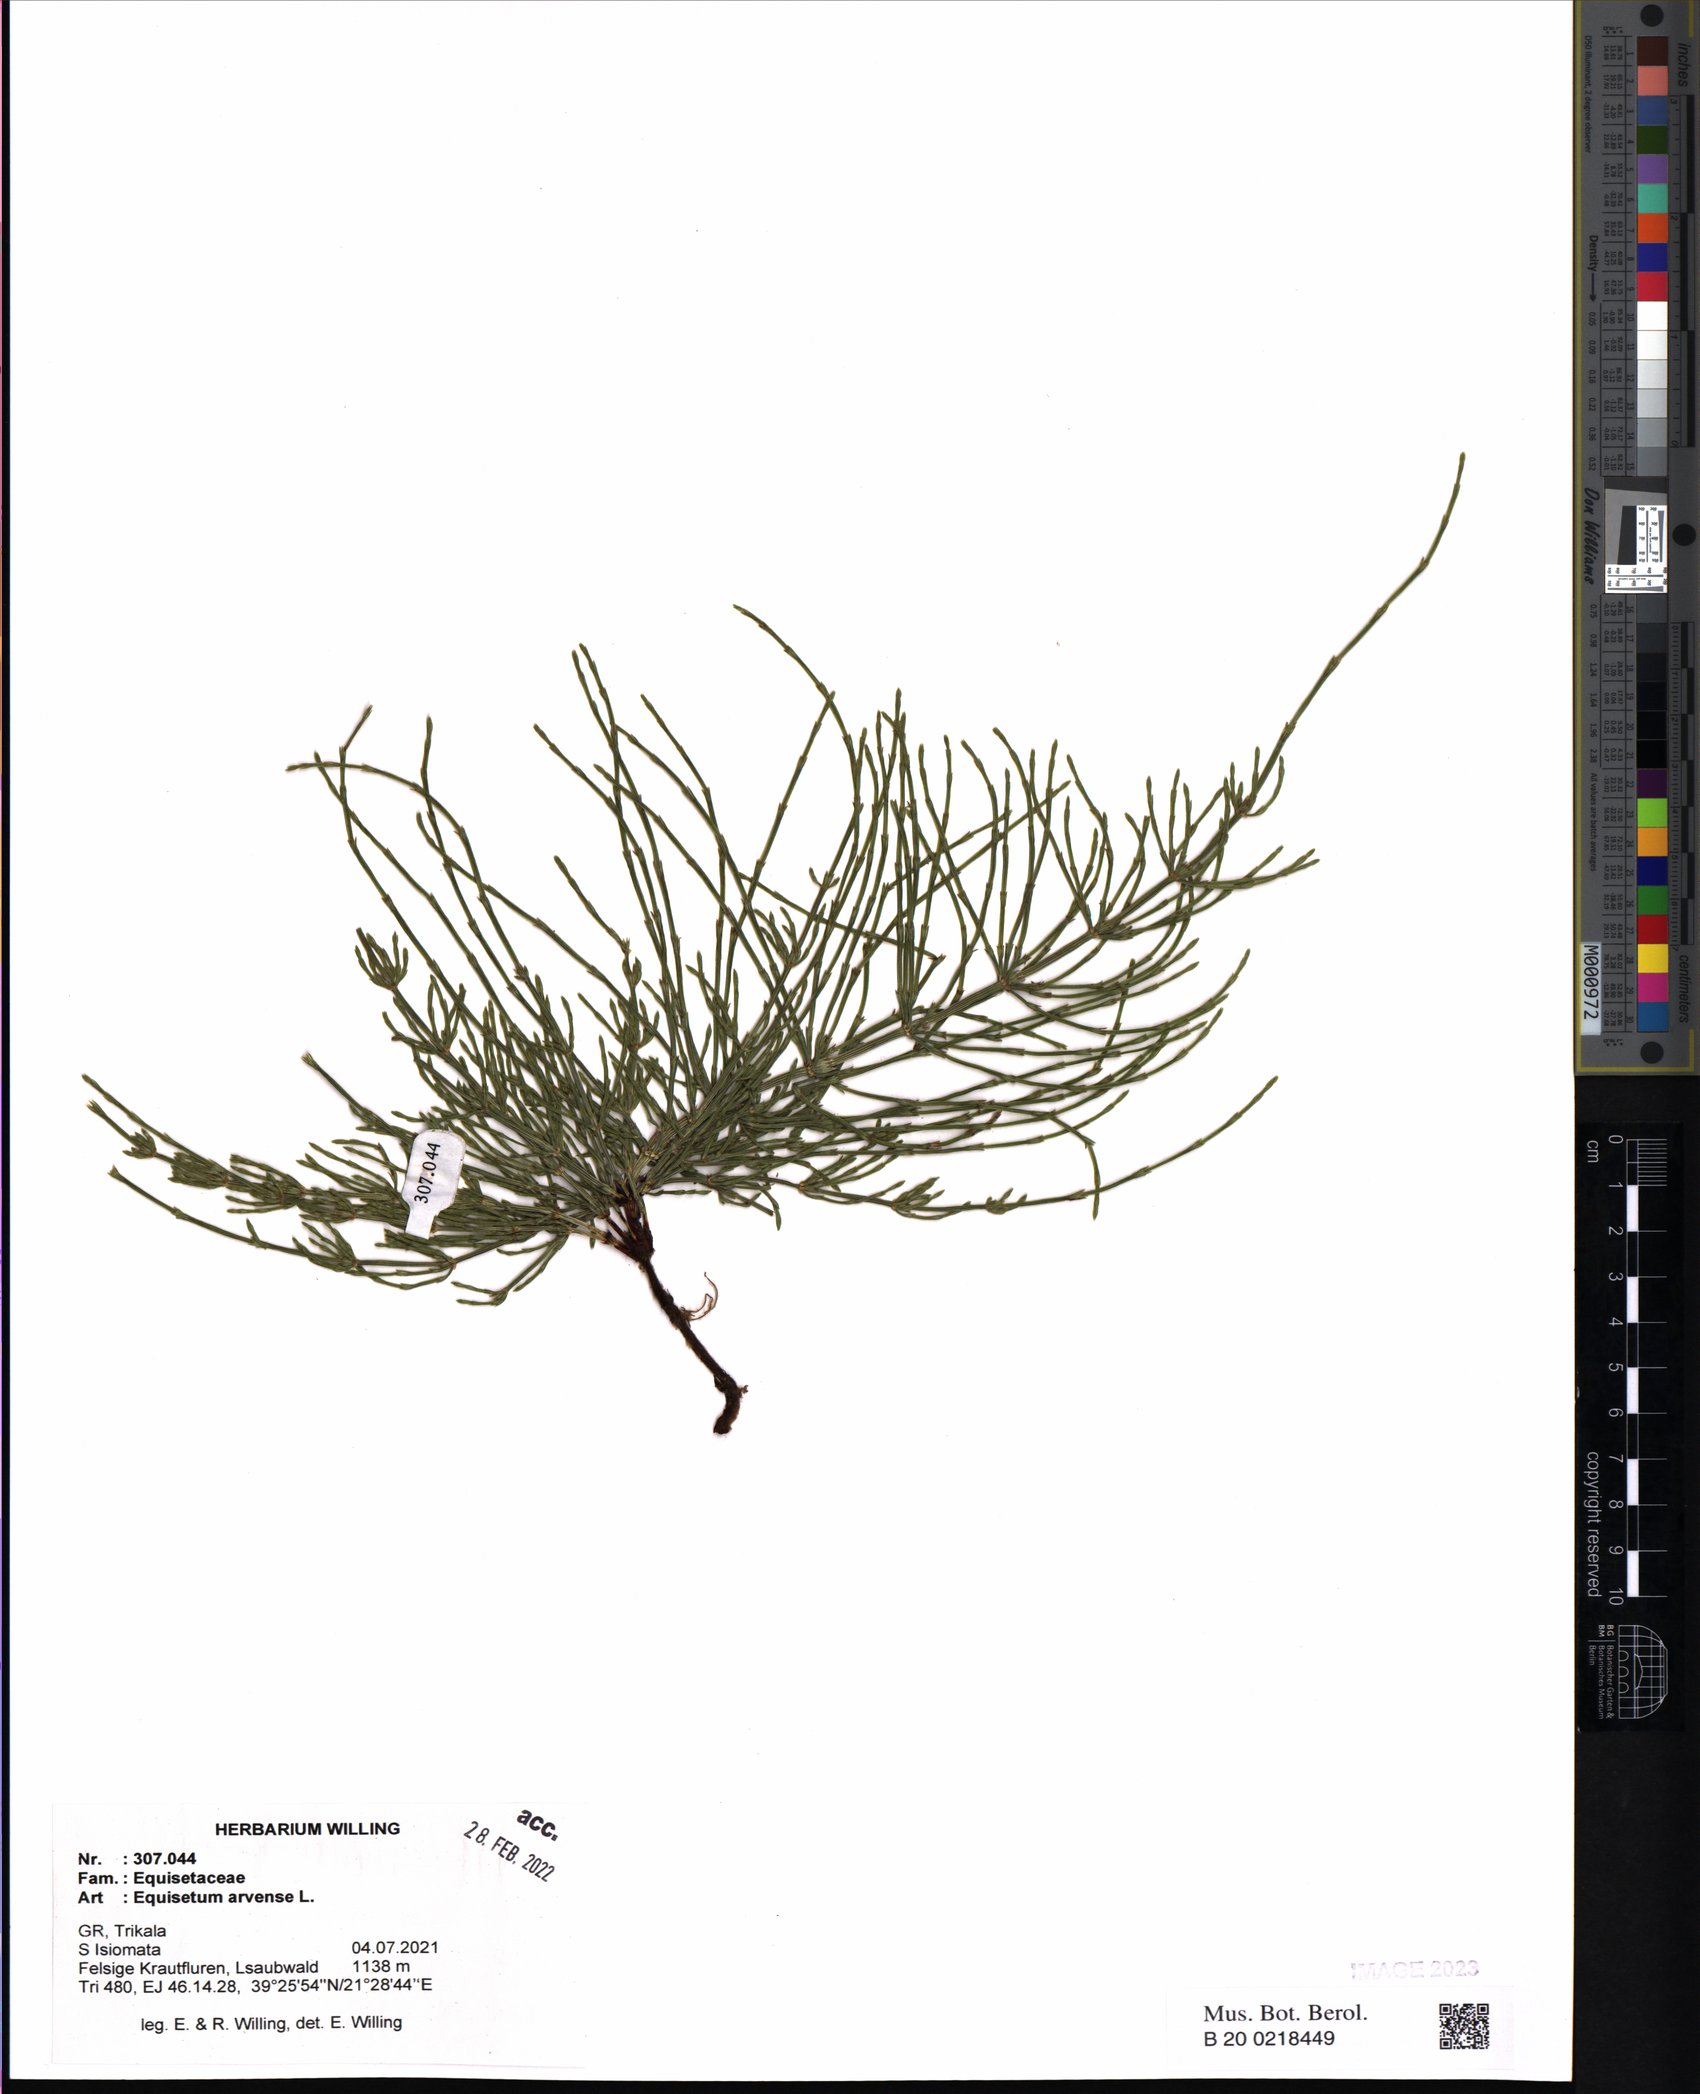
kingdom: Plantae
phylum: Tracheophyta
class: Polypodiopsida
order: Equisetales
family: Equisetaceae
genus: Equisetum
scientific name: Equisetum arvense
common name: Field horsetail
